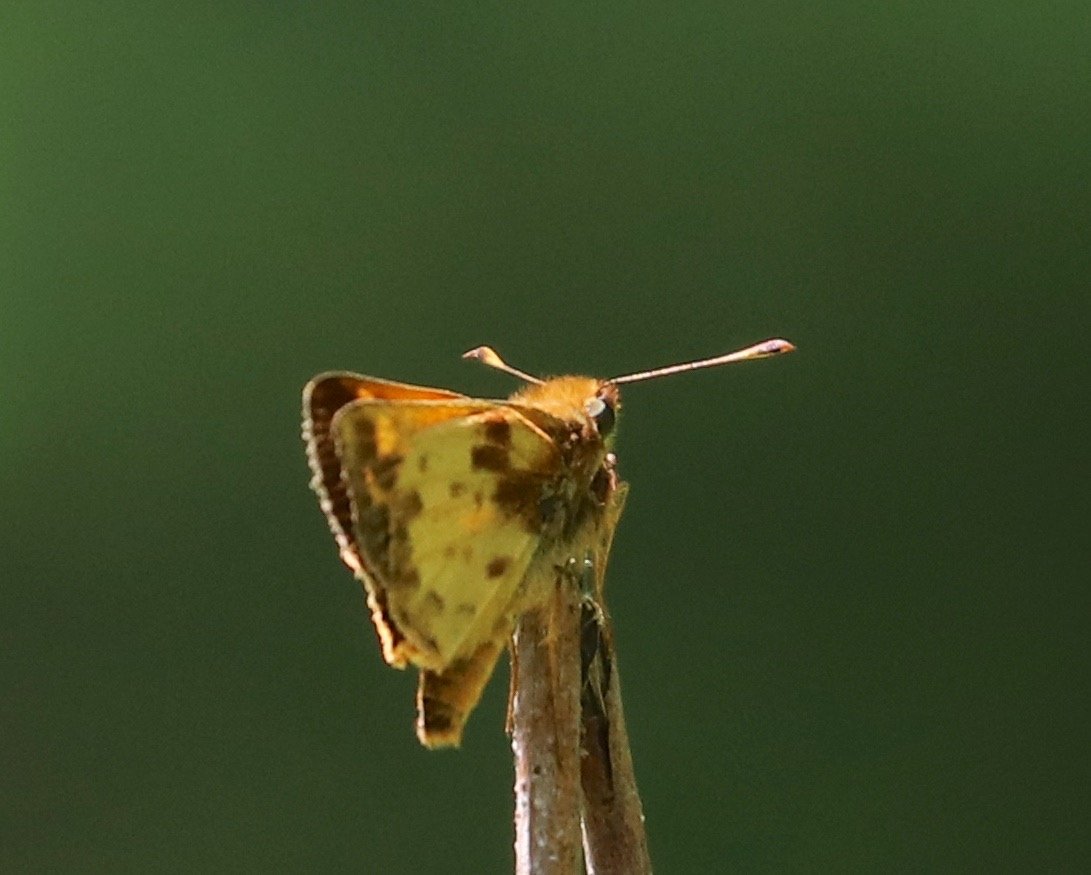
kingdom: Animalia
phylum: Arthropoda
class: Insecta
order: Lepidoptera
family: Hesperiidae
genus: Lon
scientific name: Lon zabulon
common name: Zabulon Skipper
